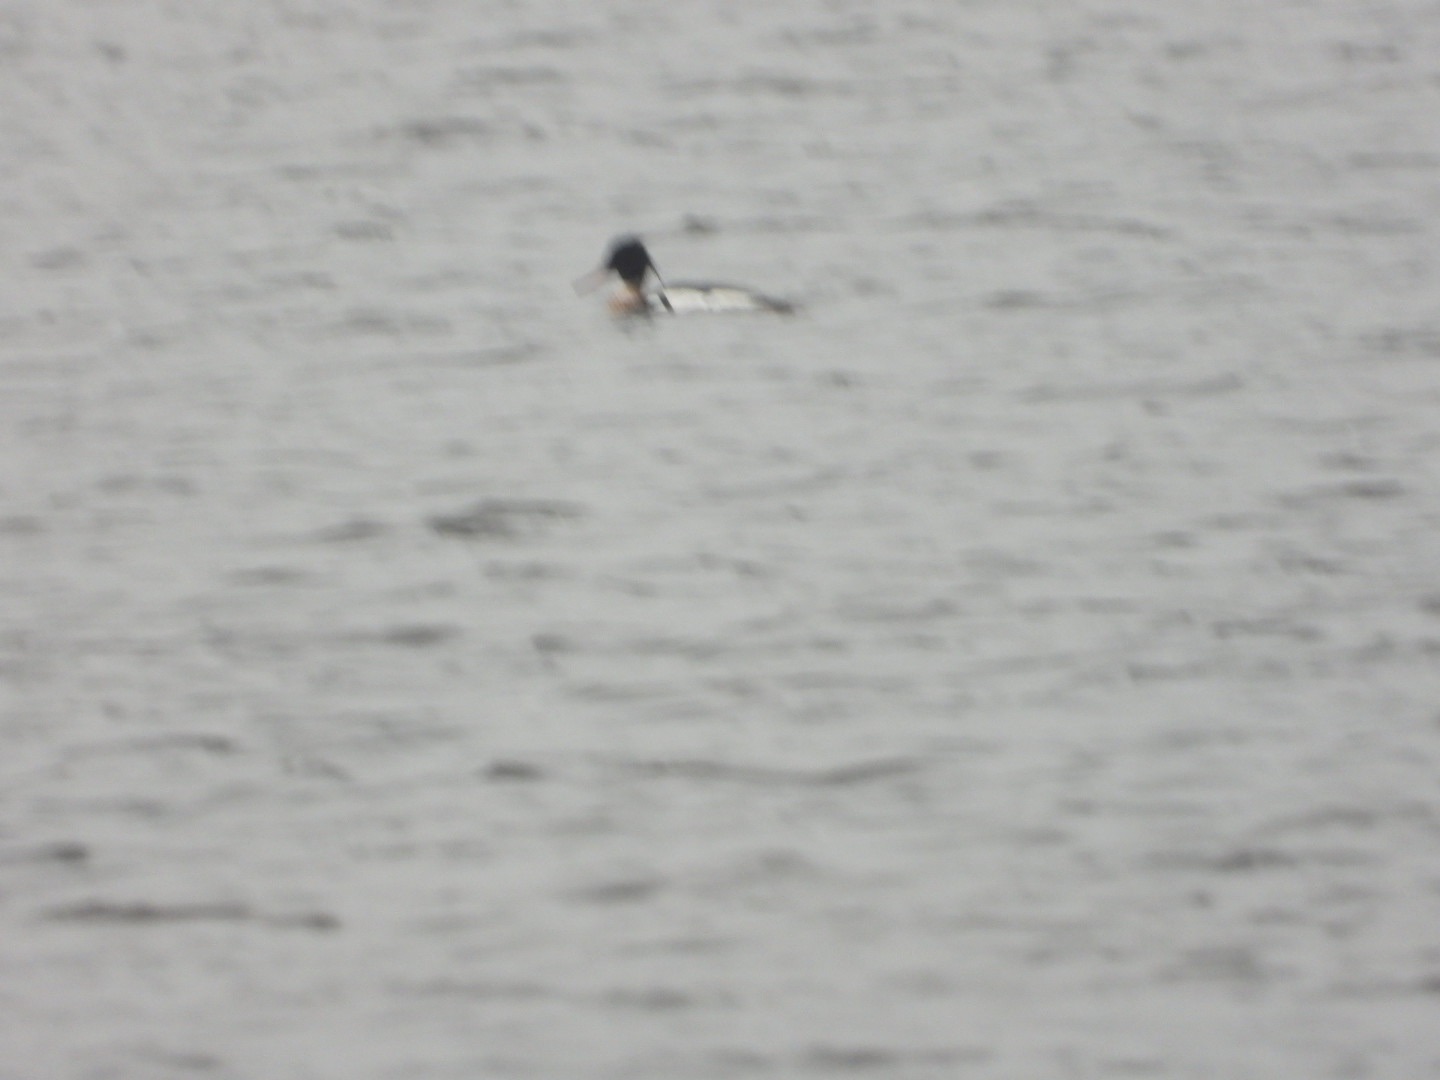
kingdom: Animalia
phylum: Chordata
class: Aves
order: Anseriformes
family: Anatidae
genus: Mergus
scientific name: Mergus serrator
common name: Toppet skallesluger
